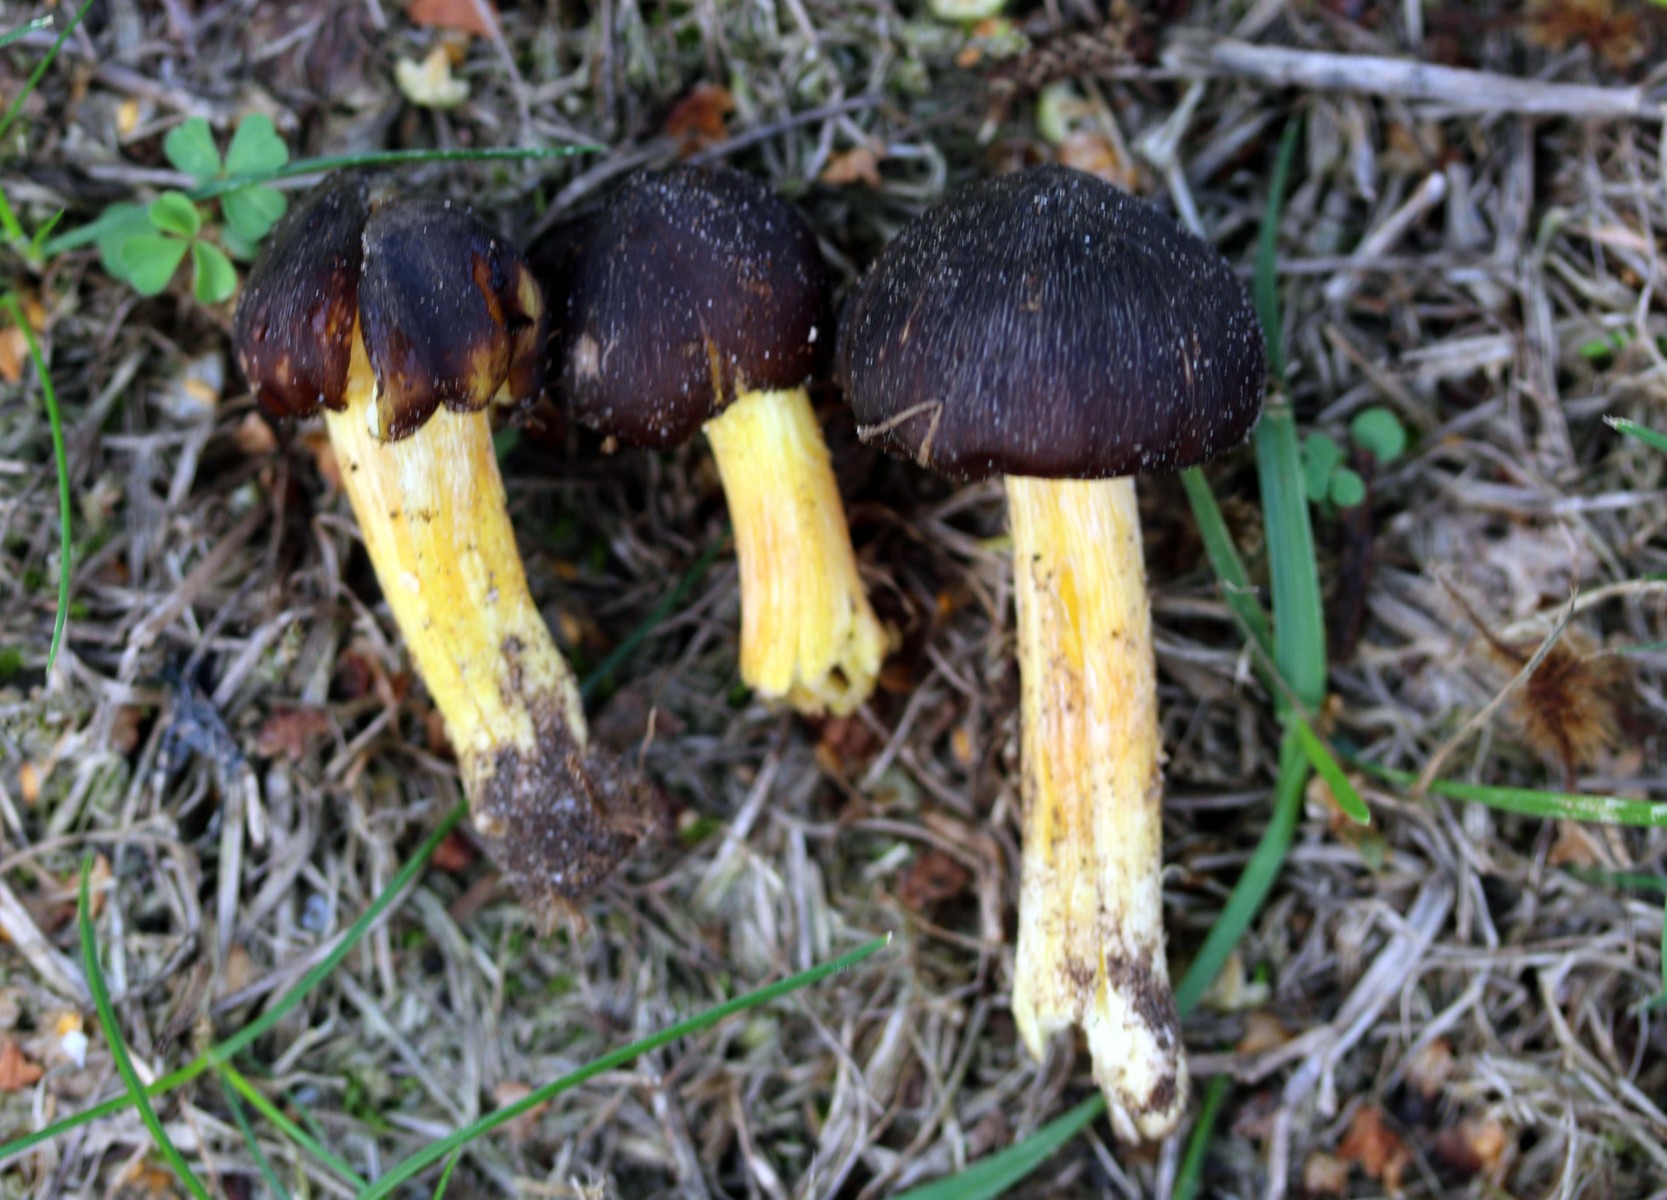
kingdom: Fungi
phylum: Basidiomycota
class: Agaricomycetes
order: Agaricales
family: Hygrophoraceae
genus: Hygrocybe
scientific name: Hygrocybe spadicea
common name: daddelbrun vokshat
